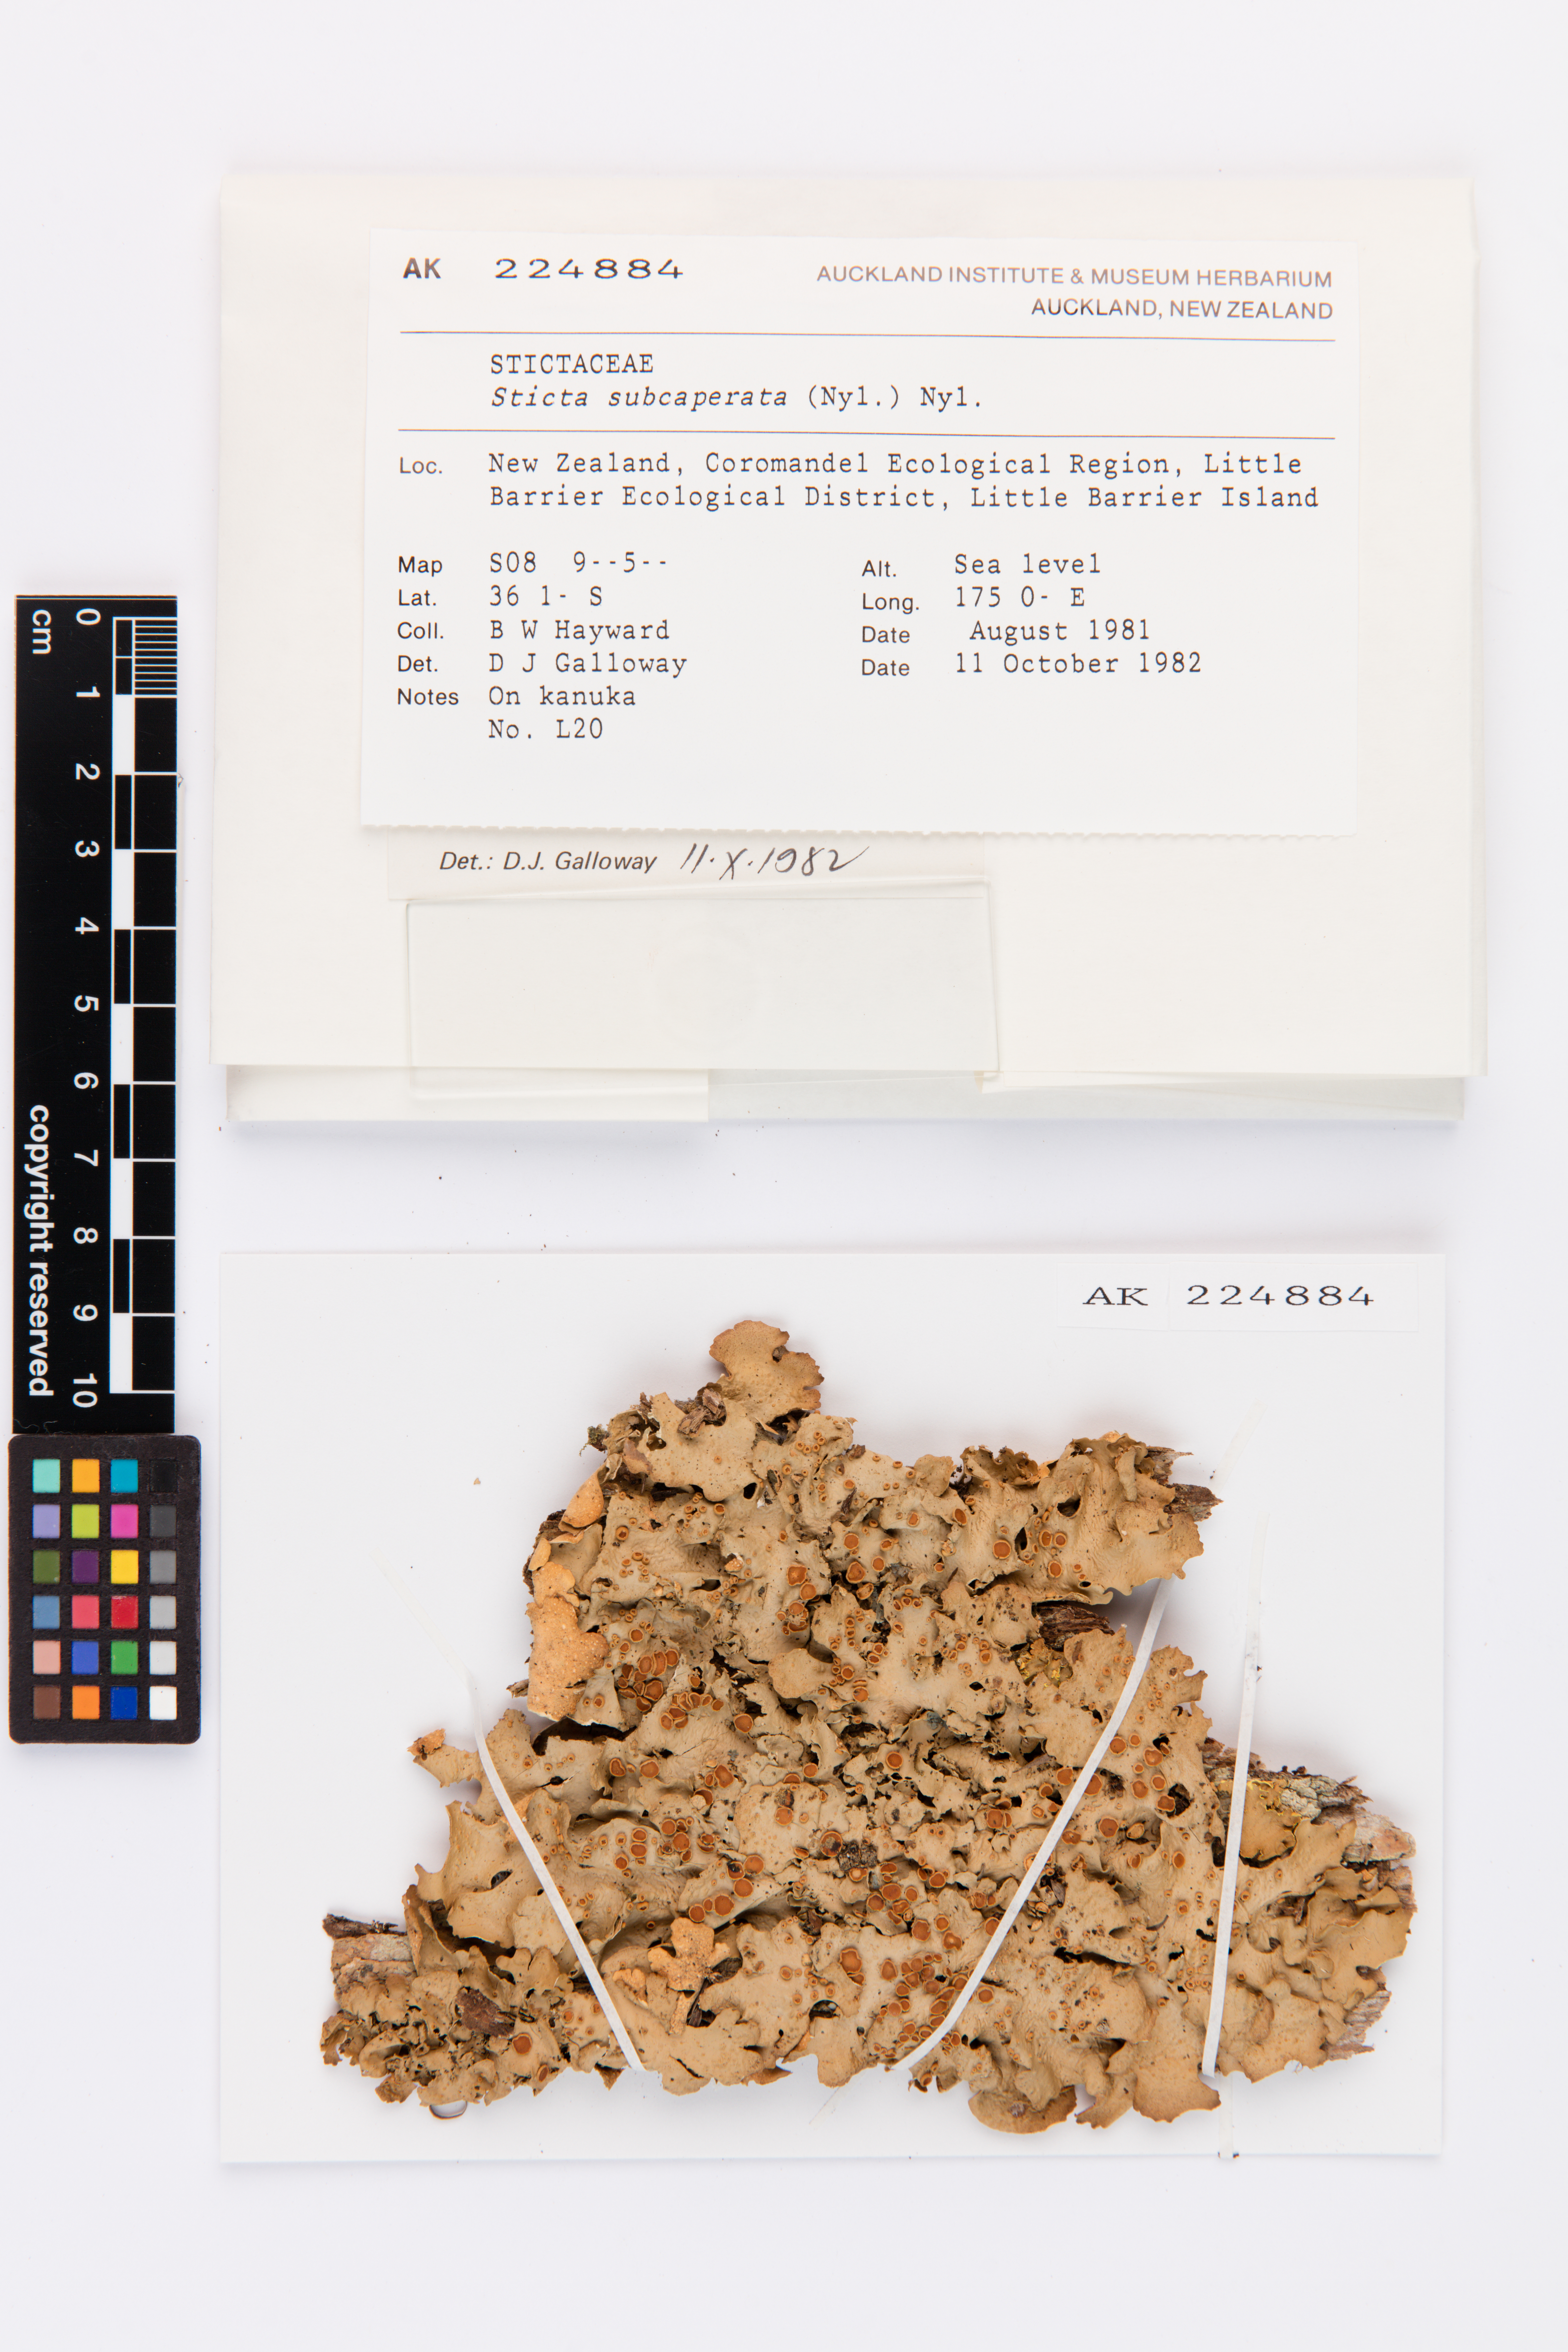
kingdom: Fungi
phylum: Ascomycota
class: Lecanoromycetes
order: Peltigerales
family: Lobariaceae
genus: Sticta
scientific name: Sticta subcaperata
